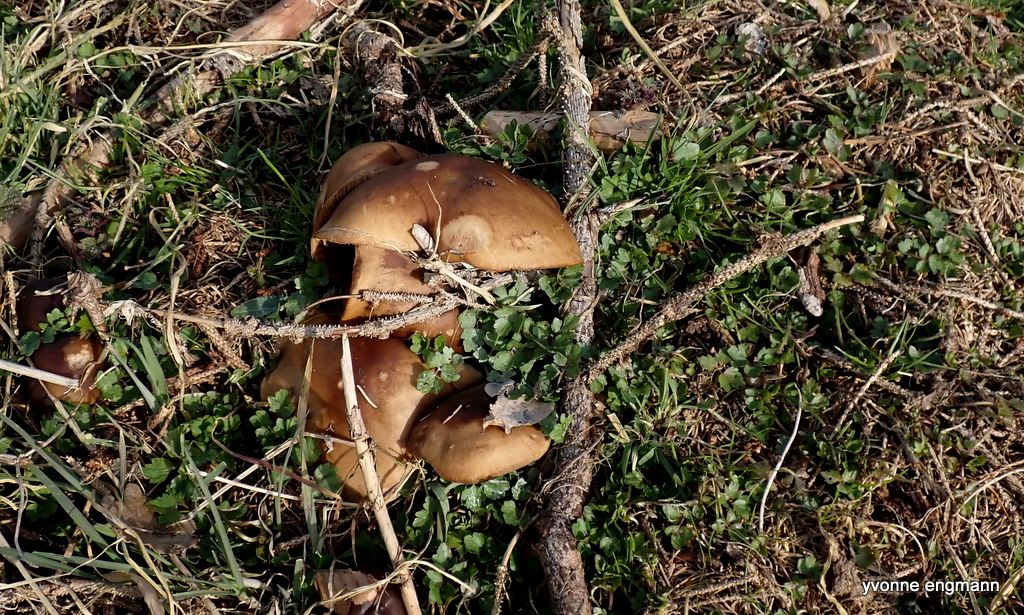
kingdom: Fungi
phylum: Basidiomycota
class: Agaricomycetes
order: Agaricales
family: Tricholomataceae
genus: Melanoleuca
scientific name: Melanoleuca cognata
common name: gyldengrå munkehat
